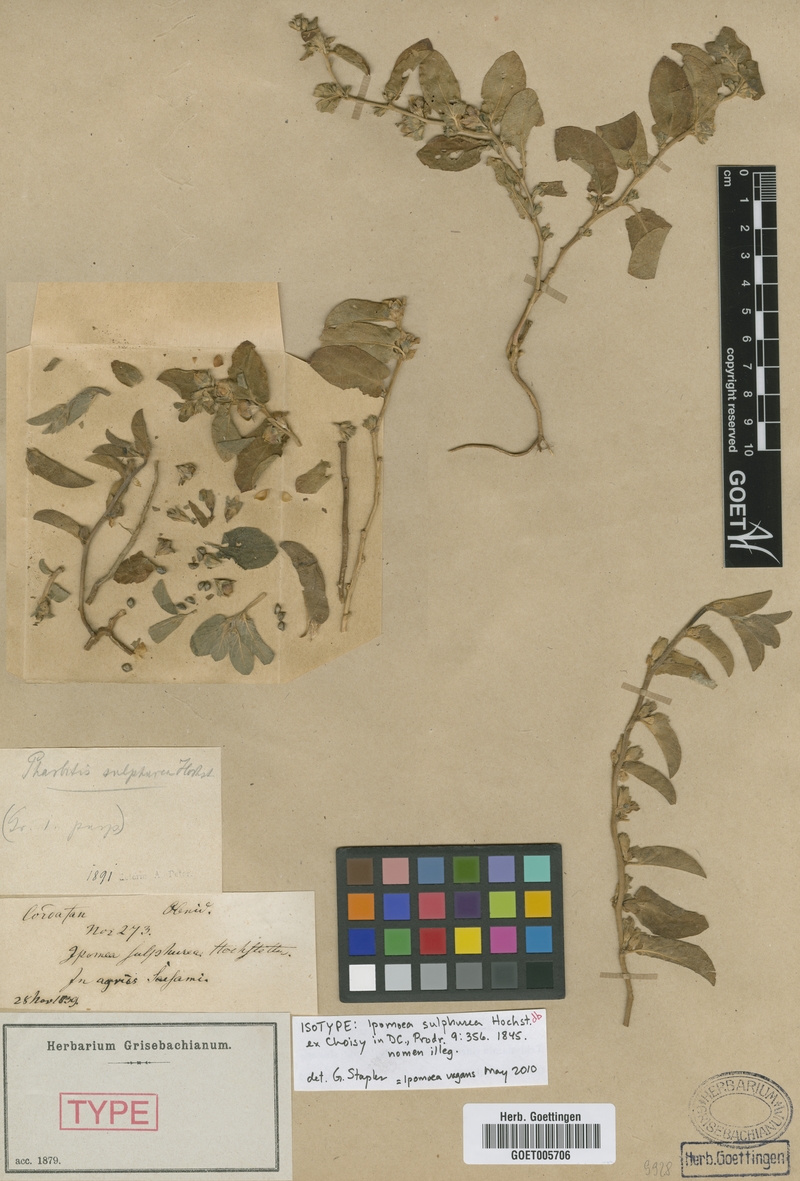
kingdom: Plantae
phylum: Tracheophyta
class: Magnoliopsida
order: Solanales
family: Convolvulaceae
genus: Ipomoea
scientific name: Ipomoea vagans
